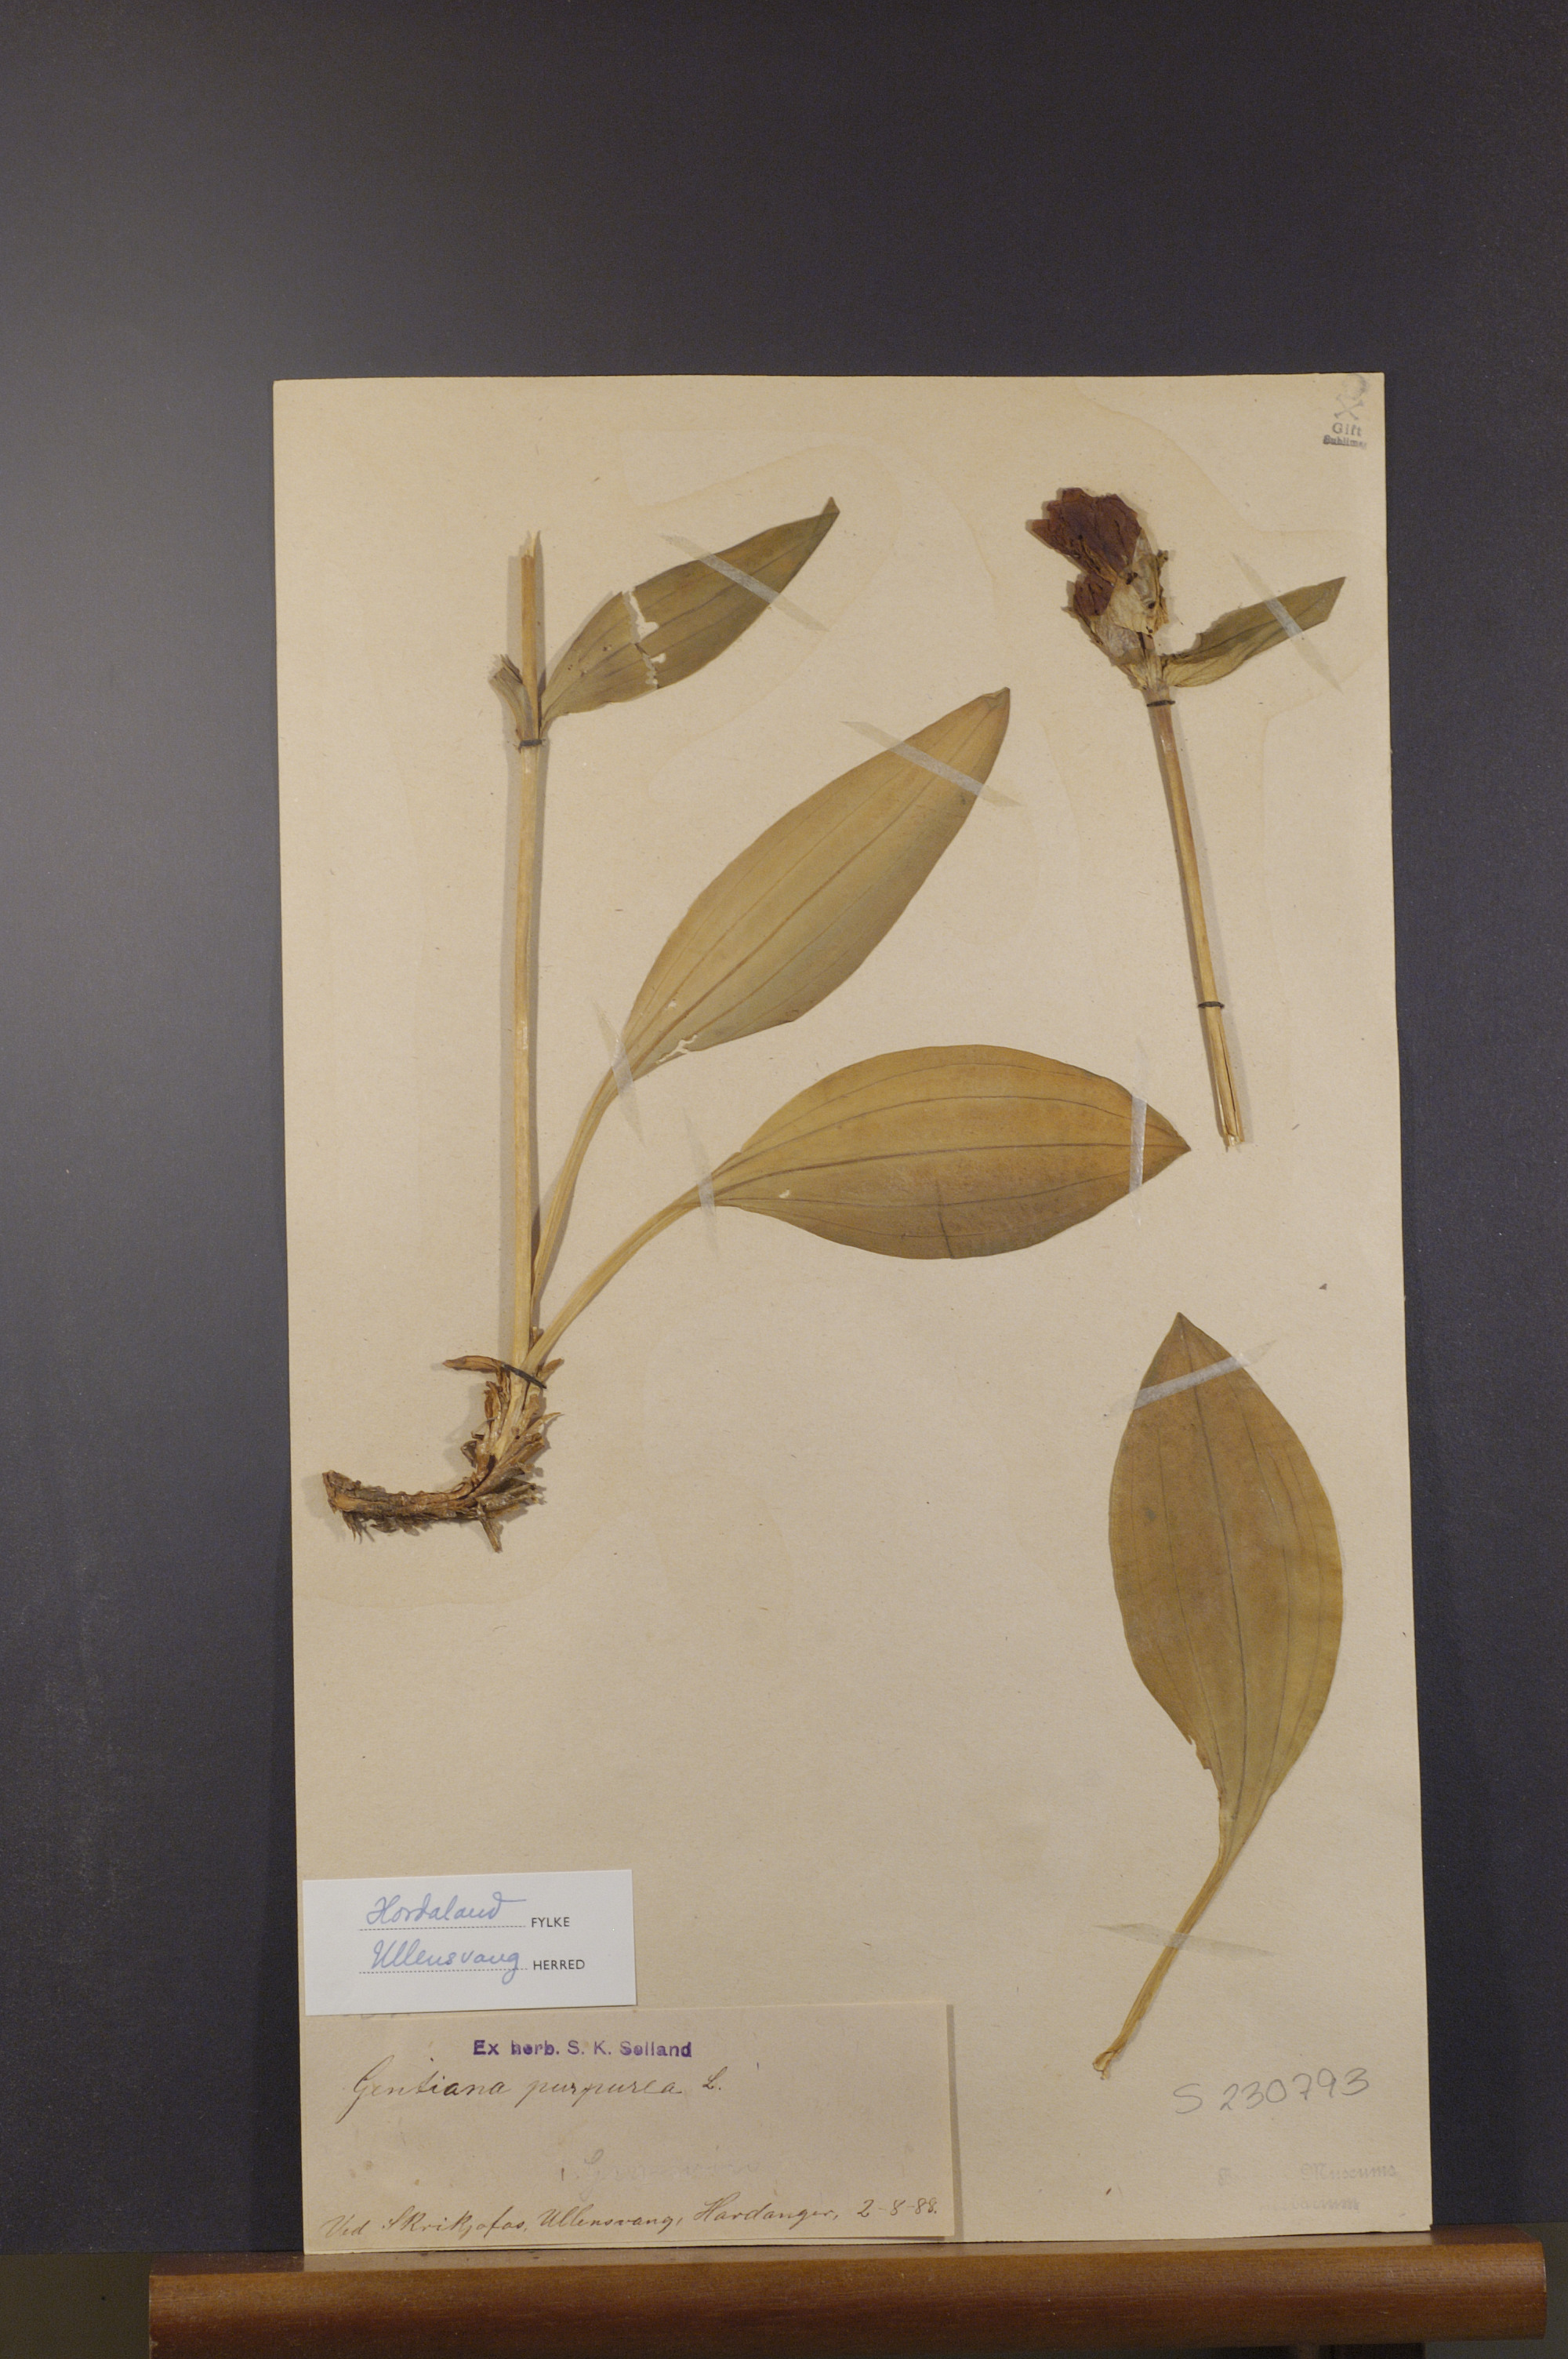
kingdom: Plantae
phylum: Tracheophyta
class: Magnoliopsida
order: Gentianales
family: Gentianaceae
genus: Gentiana
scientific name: Gentiana purpurea
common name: Purple gentian
